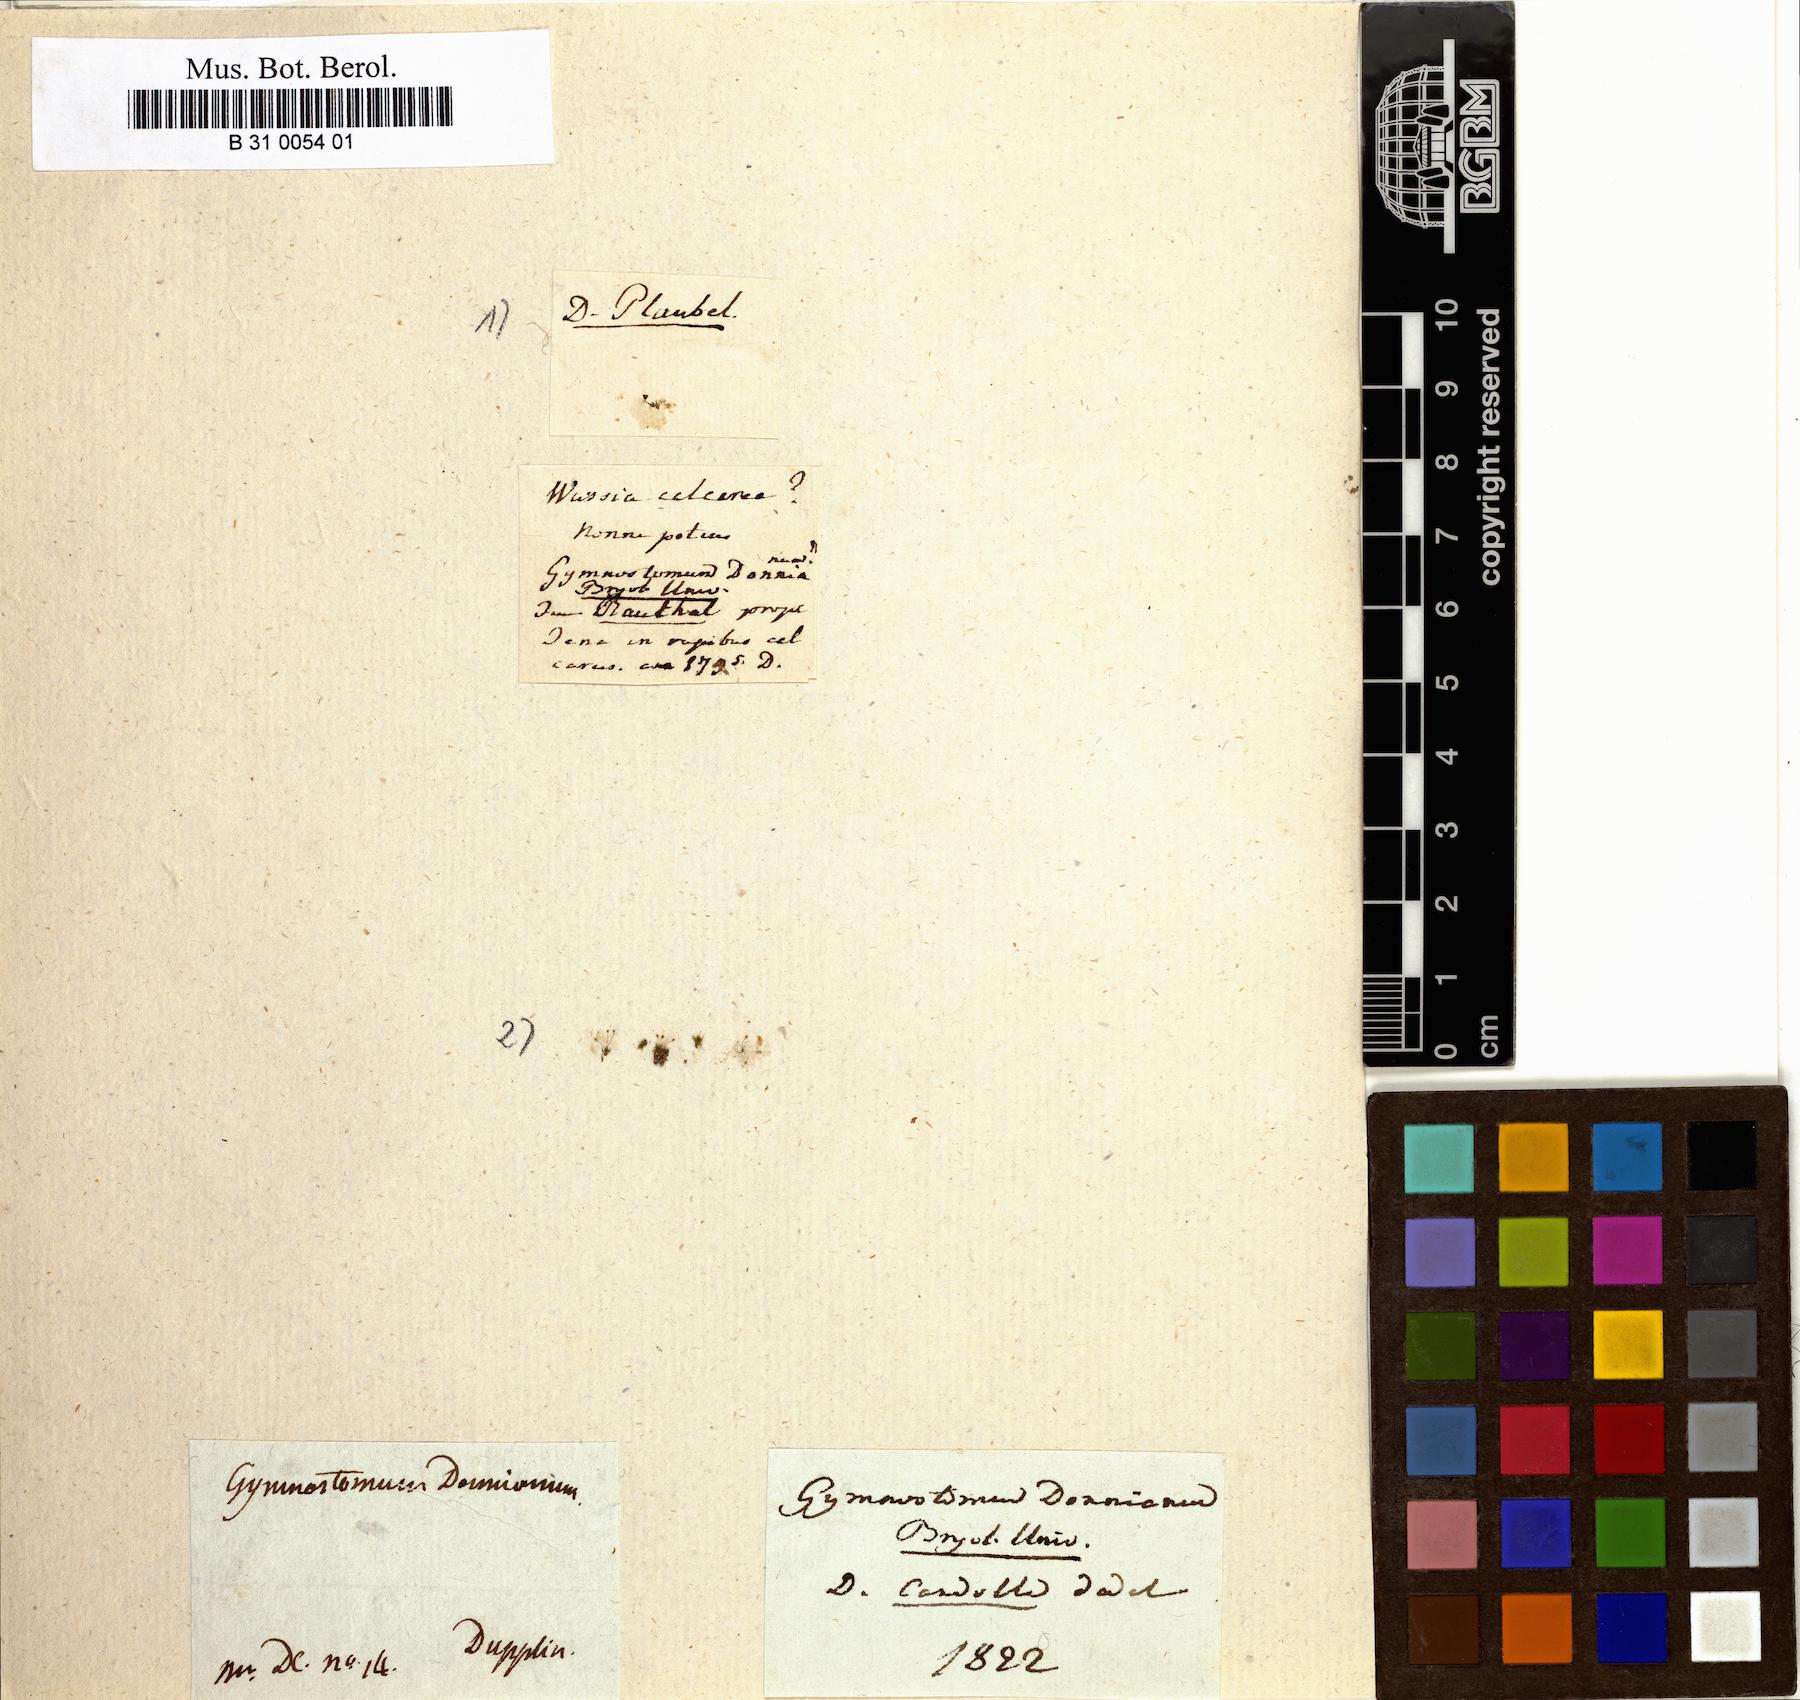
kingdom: Plantae
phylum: Bryophyta
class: Bryopsida
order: Pottiales
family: Pottiaceae
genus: Gymnostomum
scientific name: Gymnostomum
